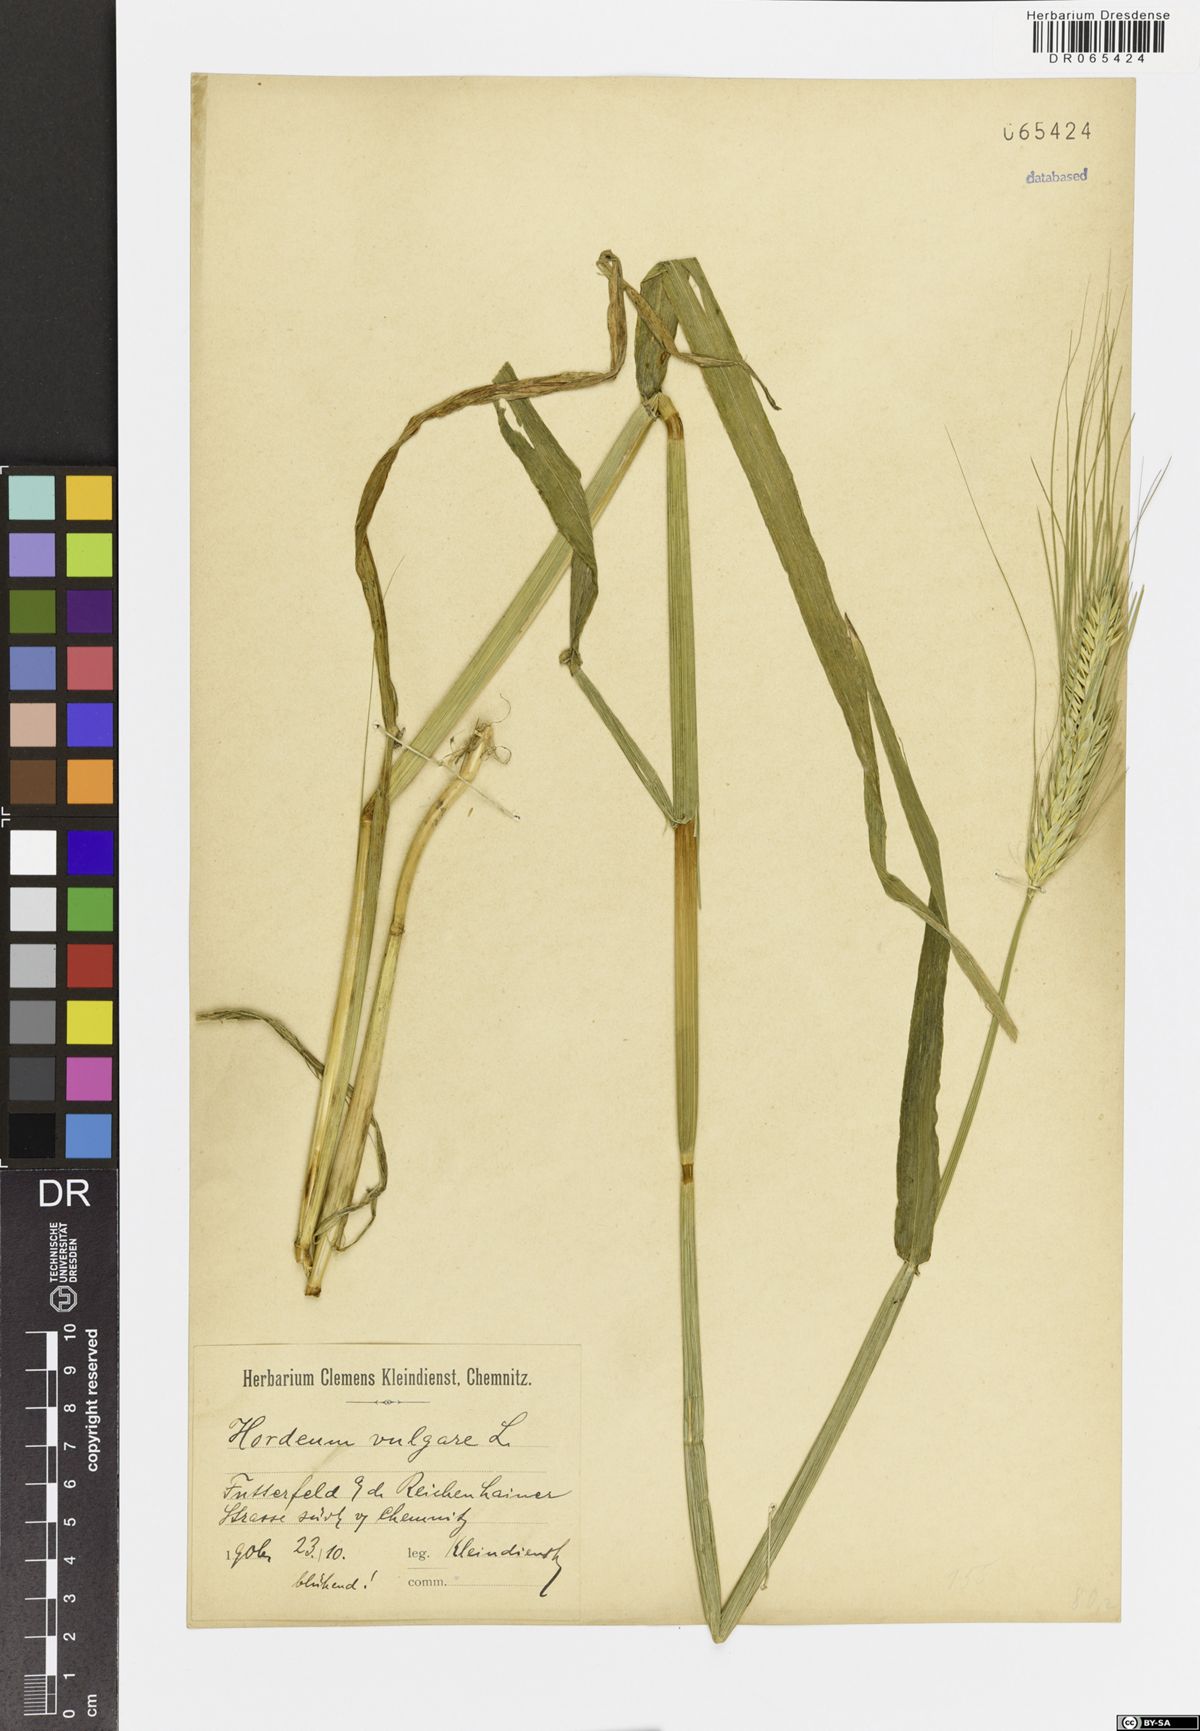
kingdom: Plantae
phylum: Tracheophyta
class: Liliopsida
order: Poales
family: Poaceae
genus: Hordeum
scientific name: Hordeum vulgare
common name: Common barley
